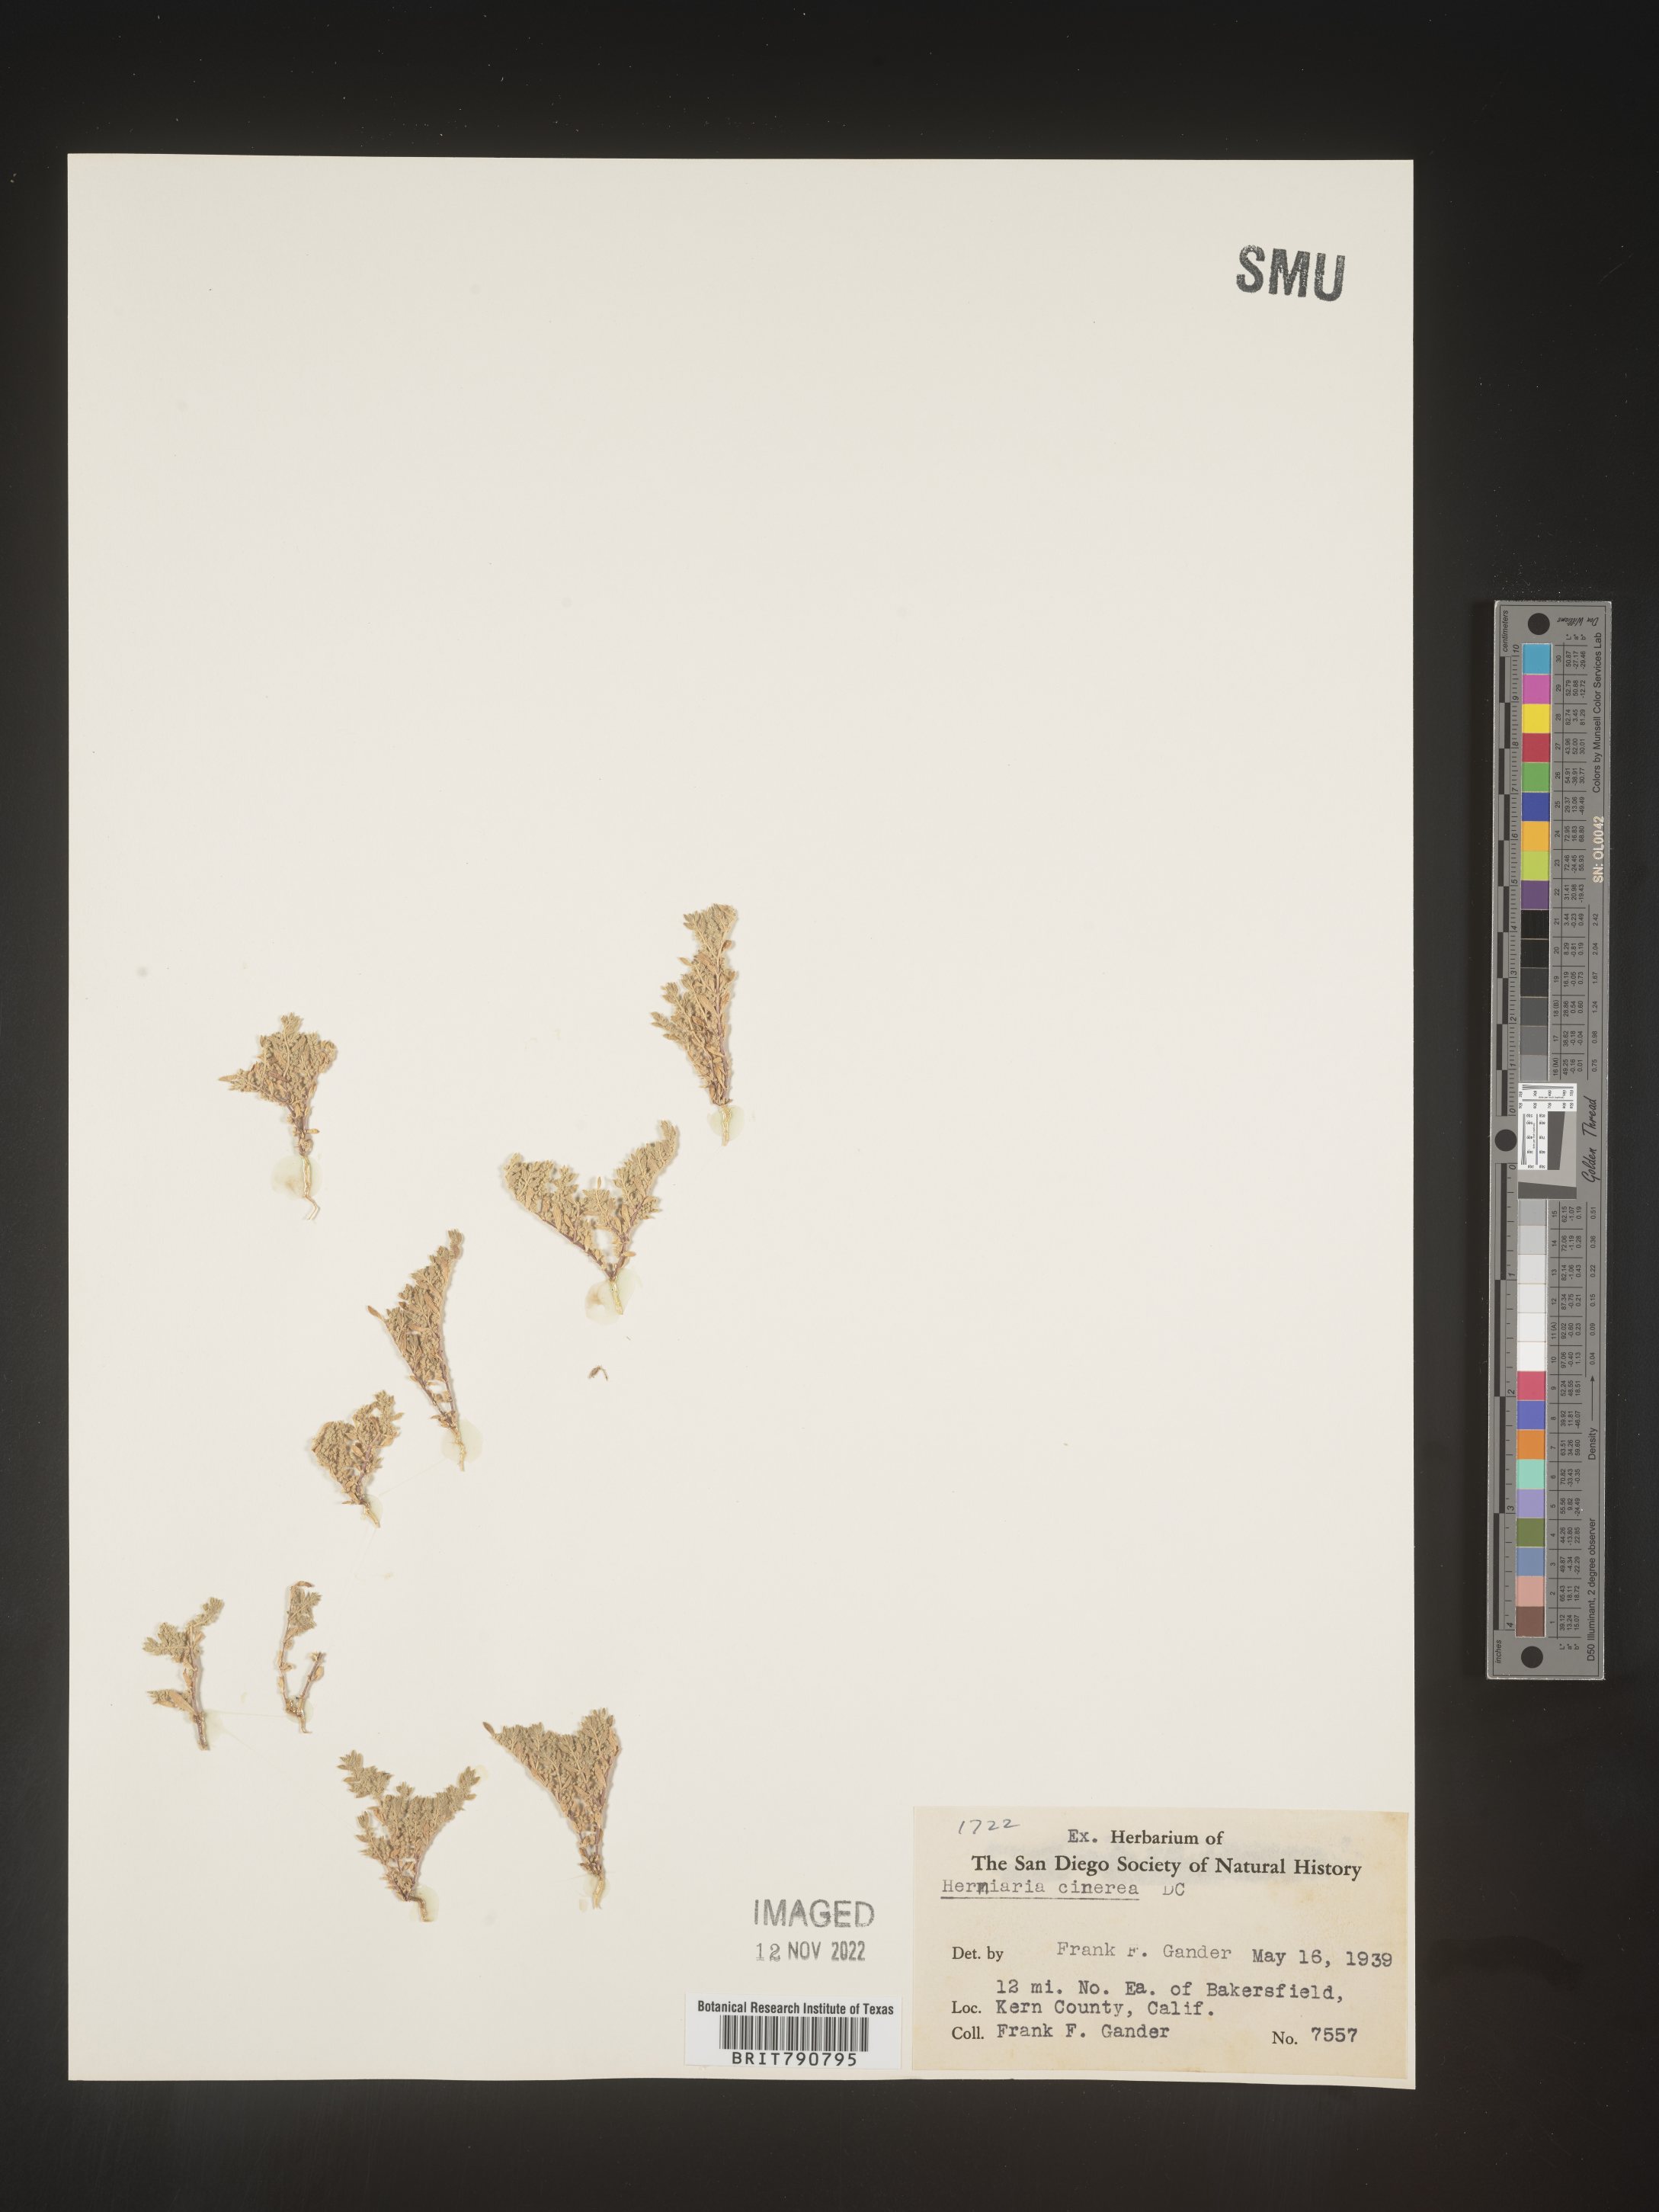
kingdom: Plantae
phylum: Tracheophyta
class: Magnoliopsida
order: Caryophyllales
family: Caryophyllaceae
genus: Herniaria
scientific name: Herniaria
